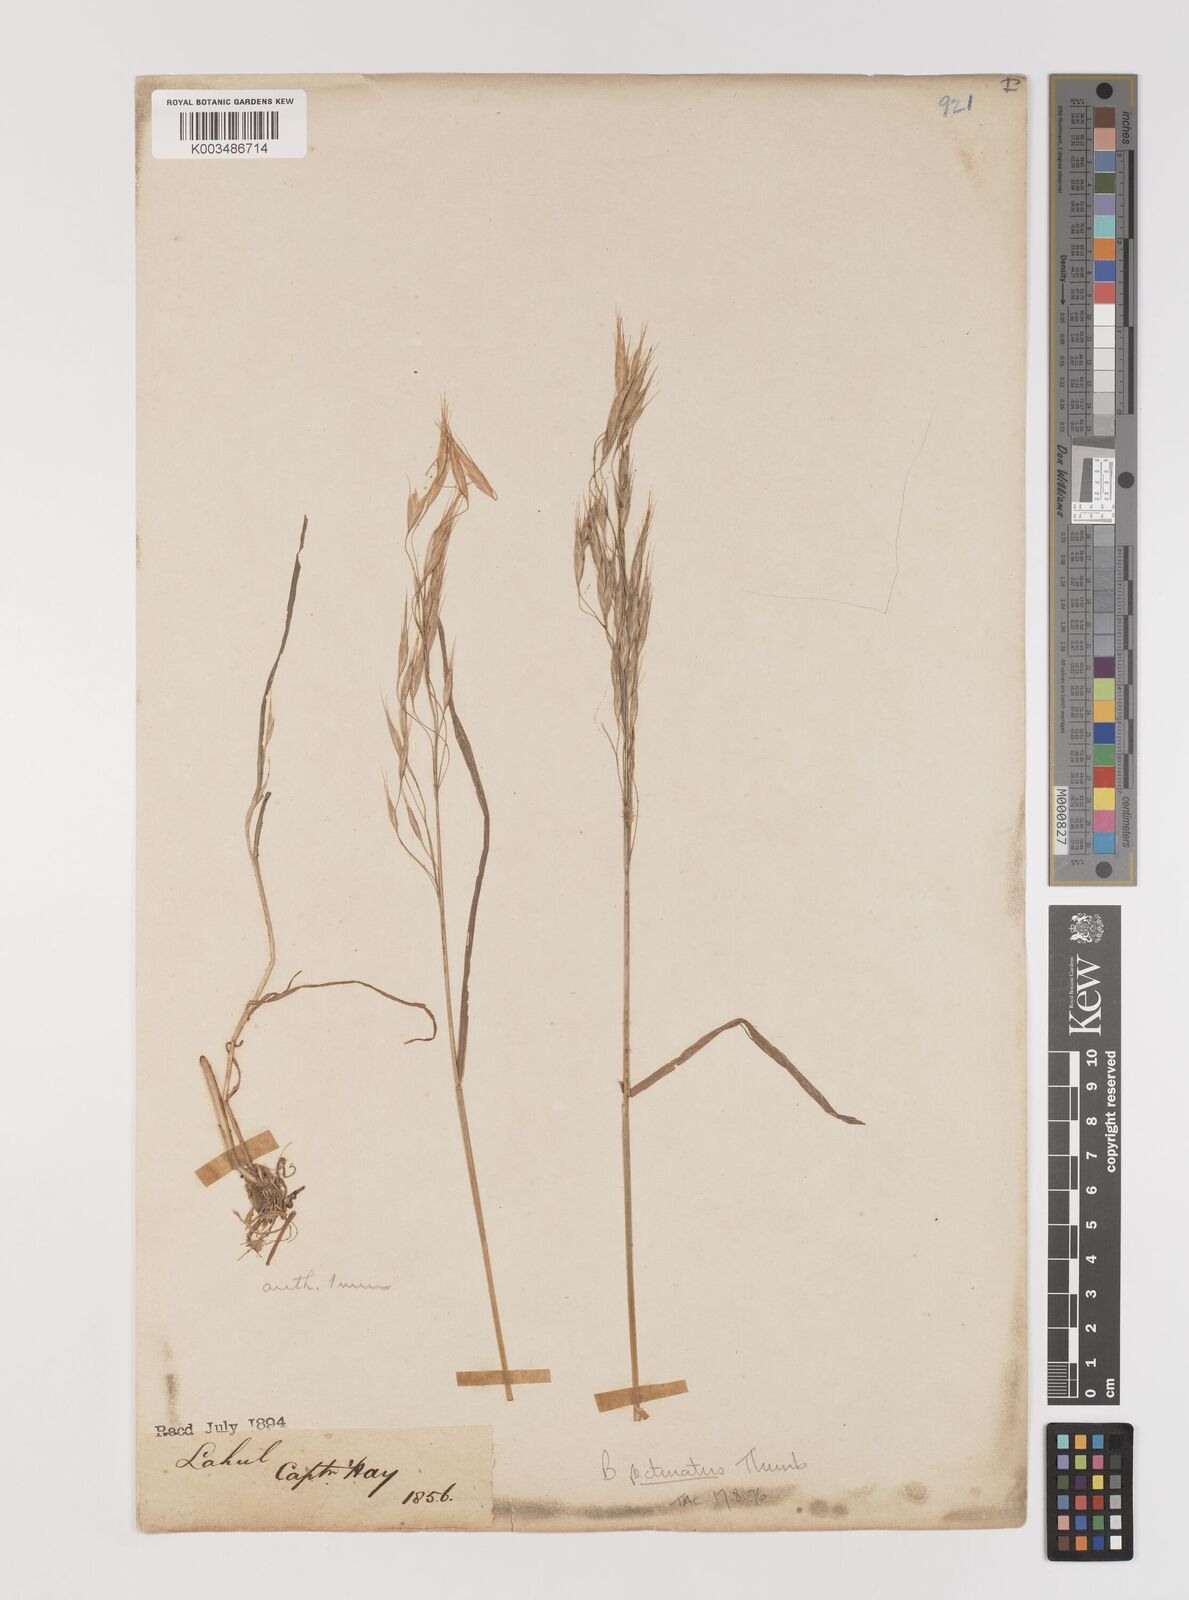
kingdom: Plantae
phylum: Tracheophyta
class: Liliopsida
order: Poales
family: Poaceae
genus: Bromus
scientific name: Bromus pectinatus
